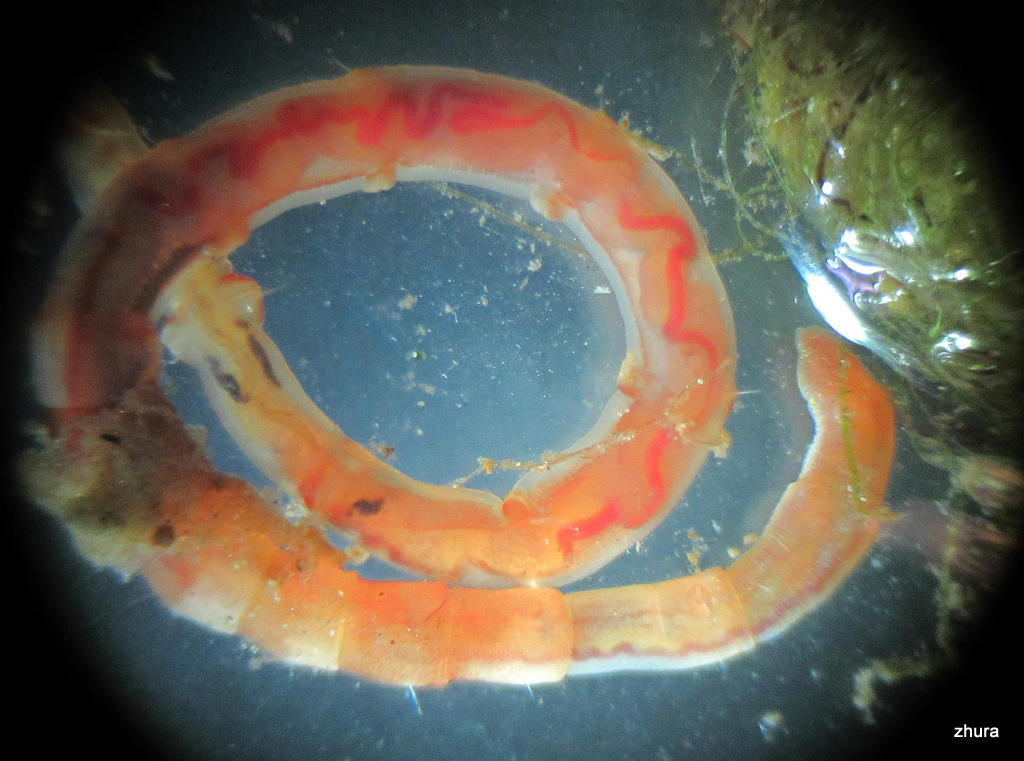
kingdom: Animalia
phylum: Annelida
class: Polychaeta
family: Maldanidae
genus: Nicomache
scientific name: Nicomache lumbricalis
